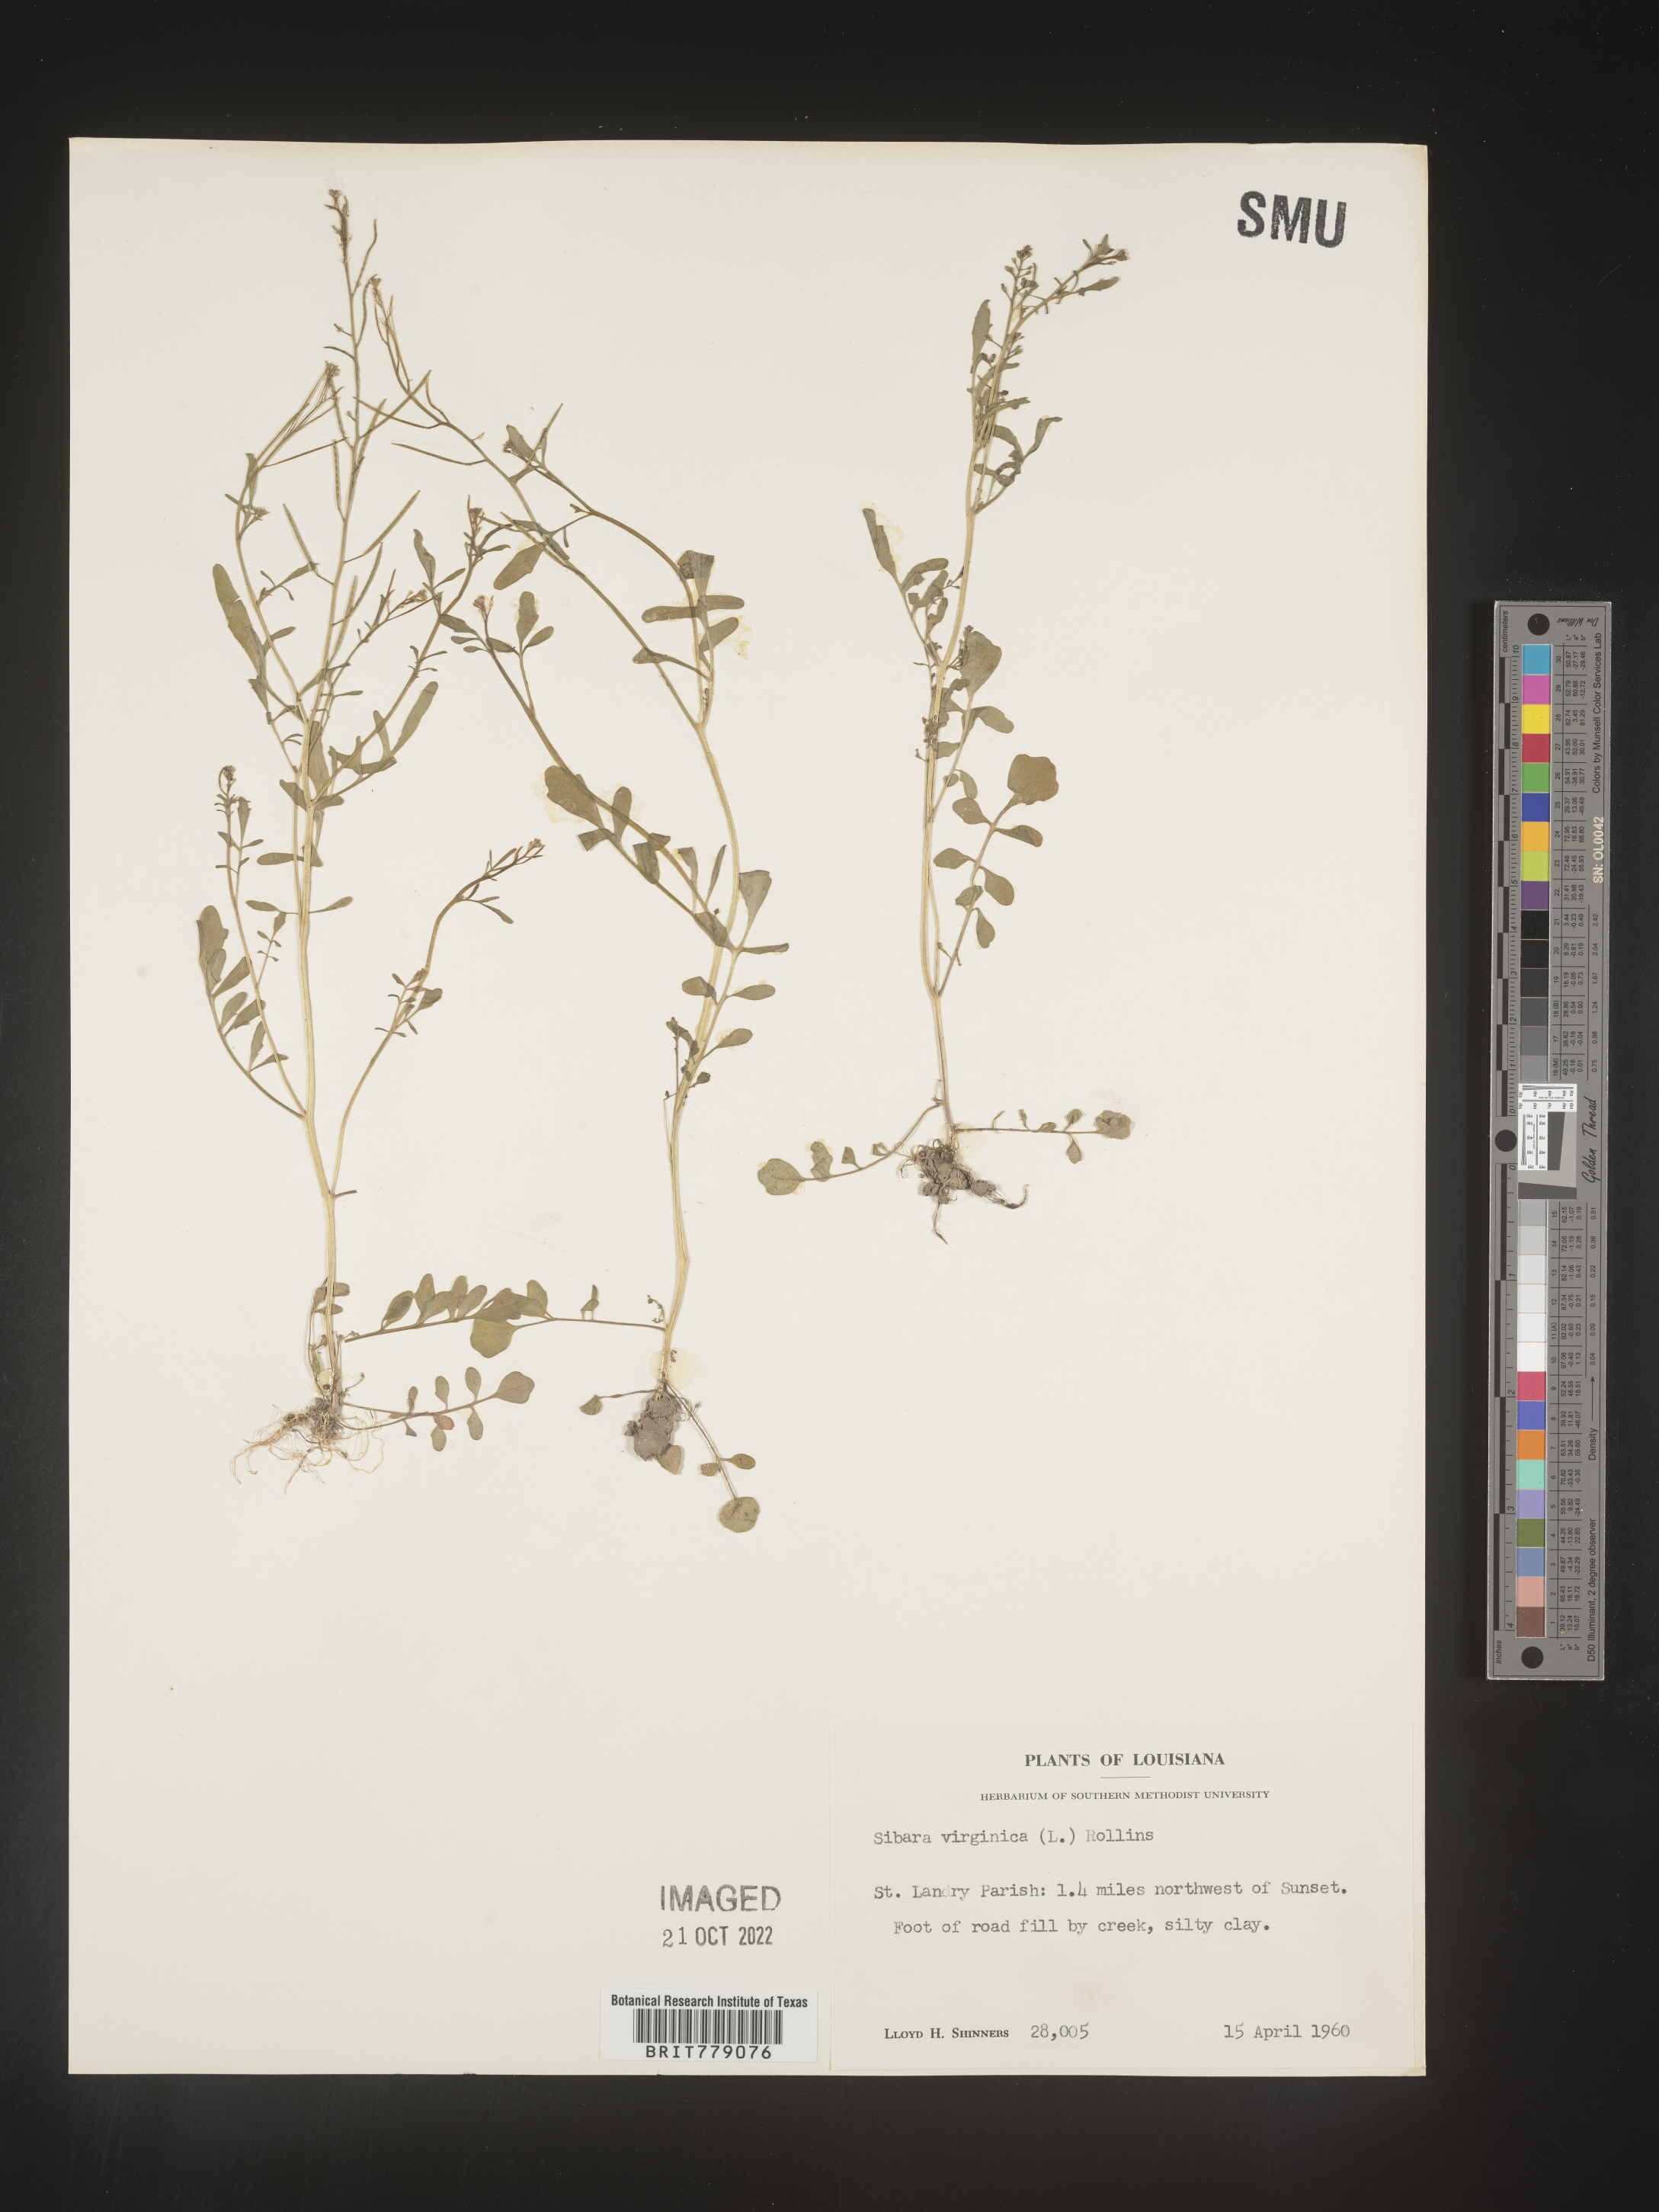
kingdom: Plantae
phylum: Tracheophyta
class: Magnoliopsida
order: Brassicales
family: Brassicaceae
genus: Sibara
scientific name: Sibara
